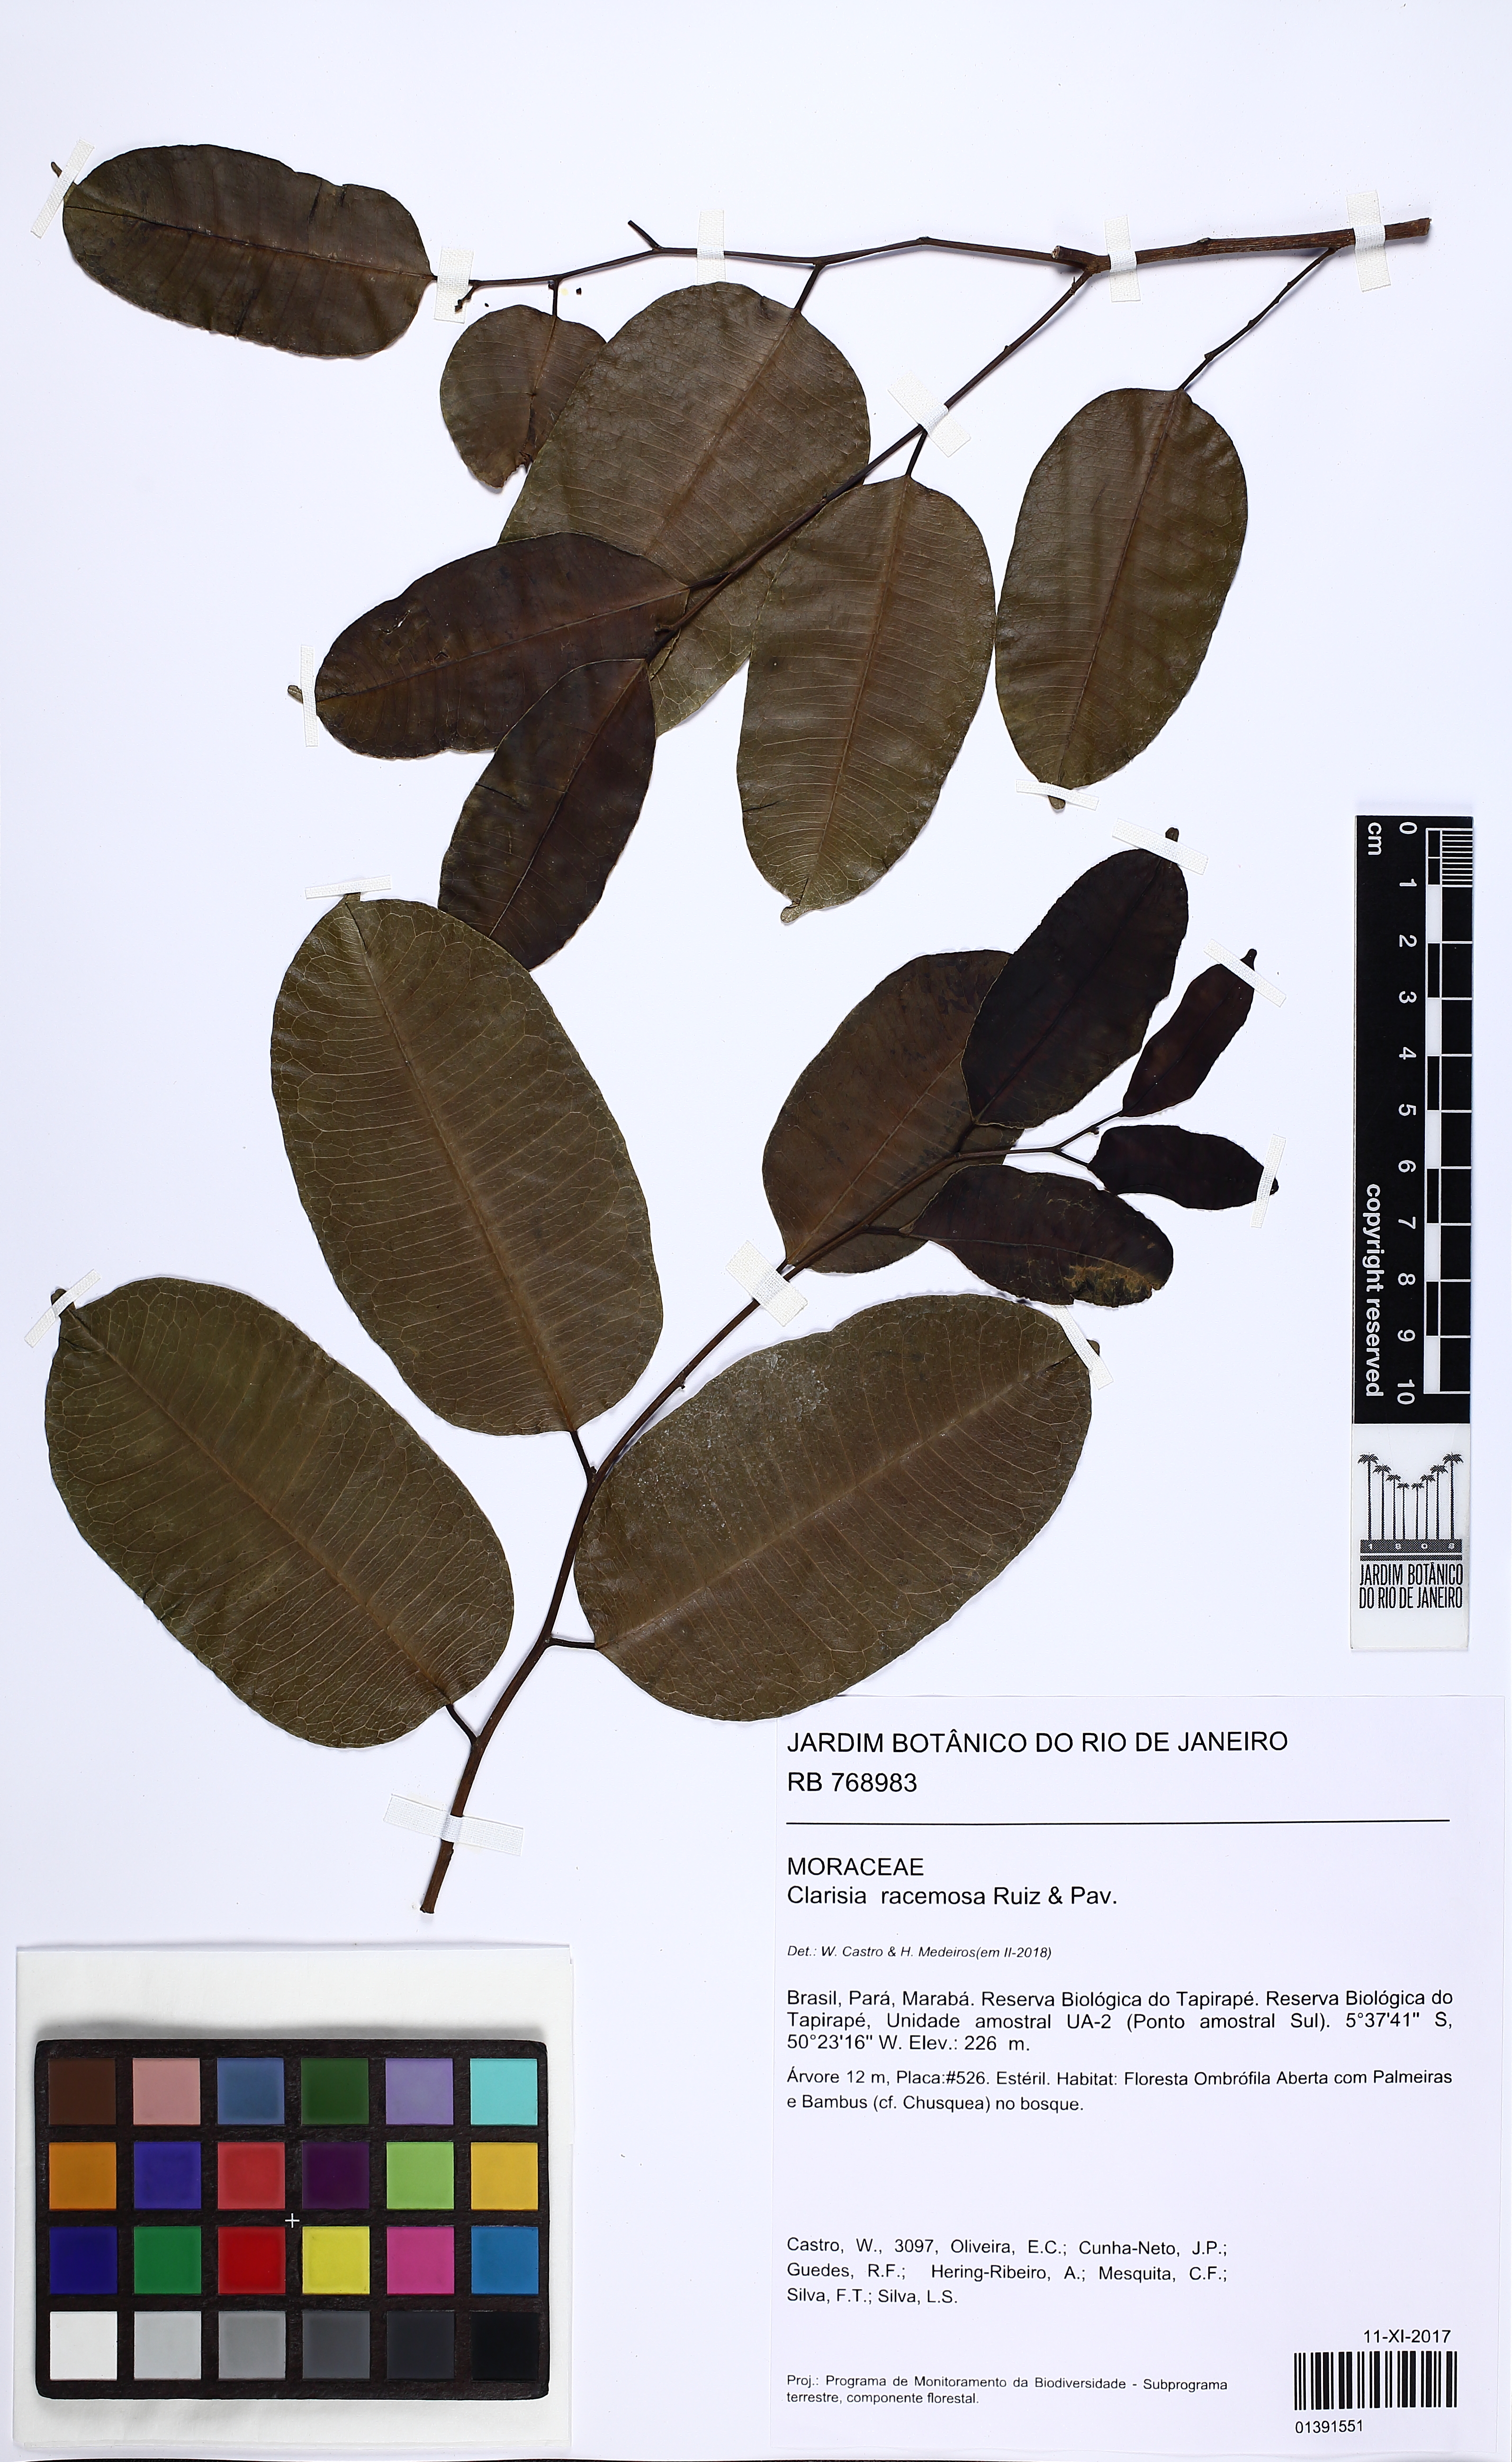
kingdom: Plantae
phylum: Tracheophyta
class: Magnoliopsida
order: Rosales
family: Moraceae
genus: Clarisia
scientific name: Clarisia racemosa
